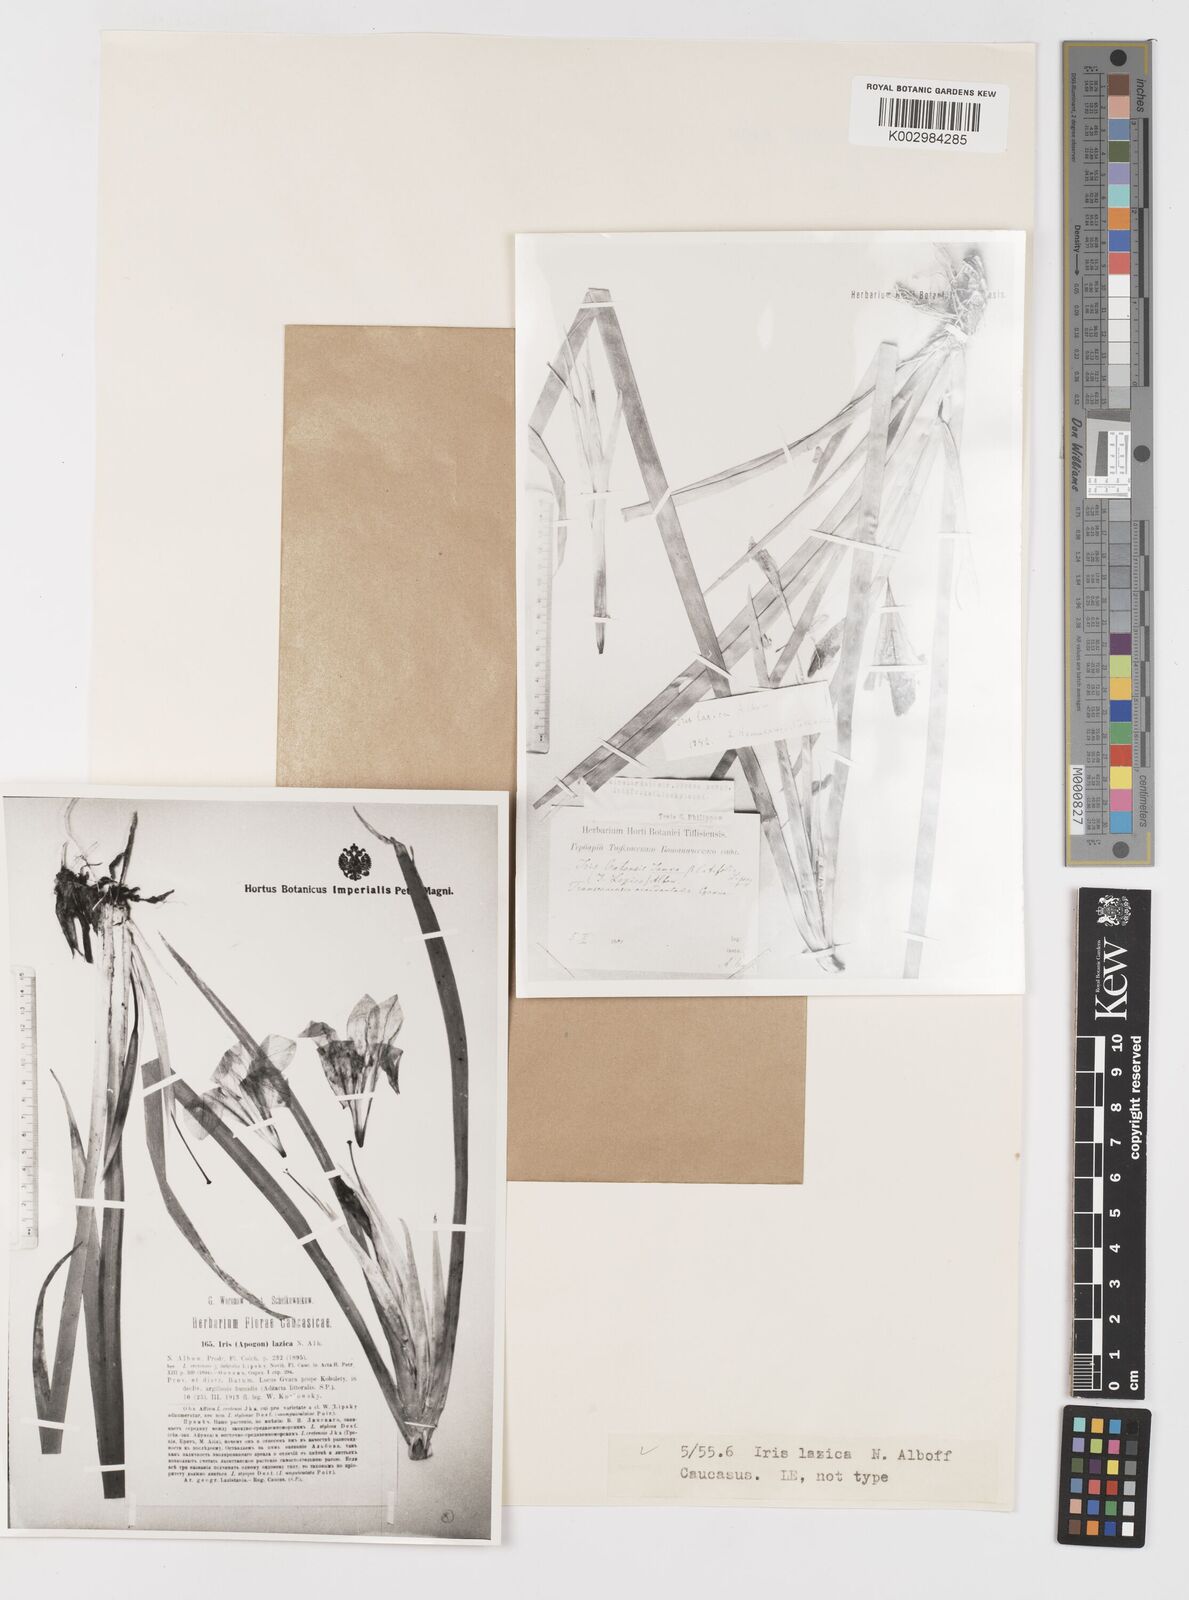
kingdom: Plantae
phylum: Tracheophyta
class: Liliopsida
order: Asparagales
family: Iridaceae
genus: Iris
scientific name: Iris lazica
